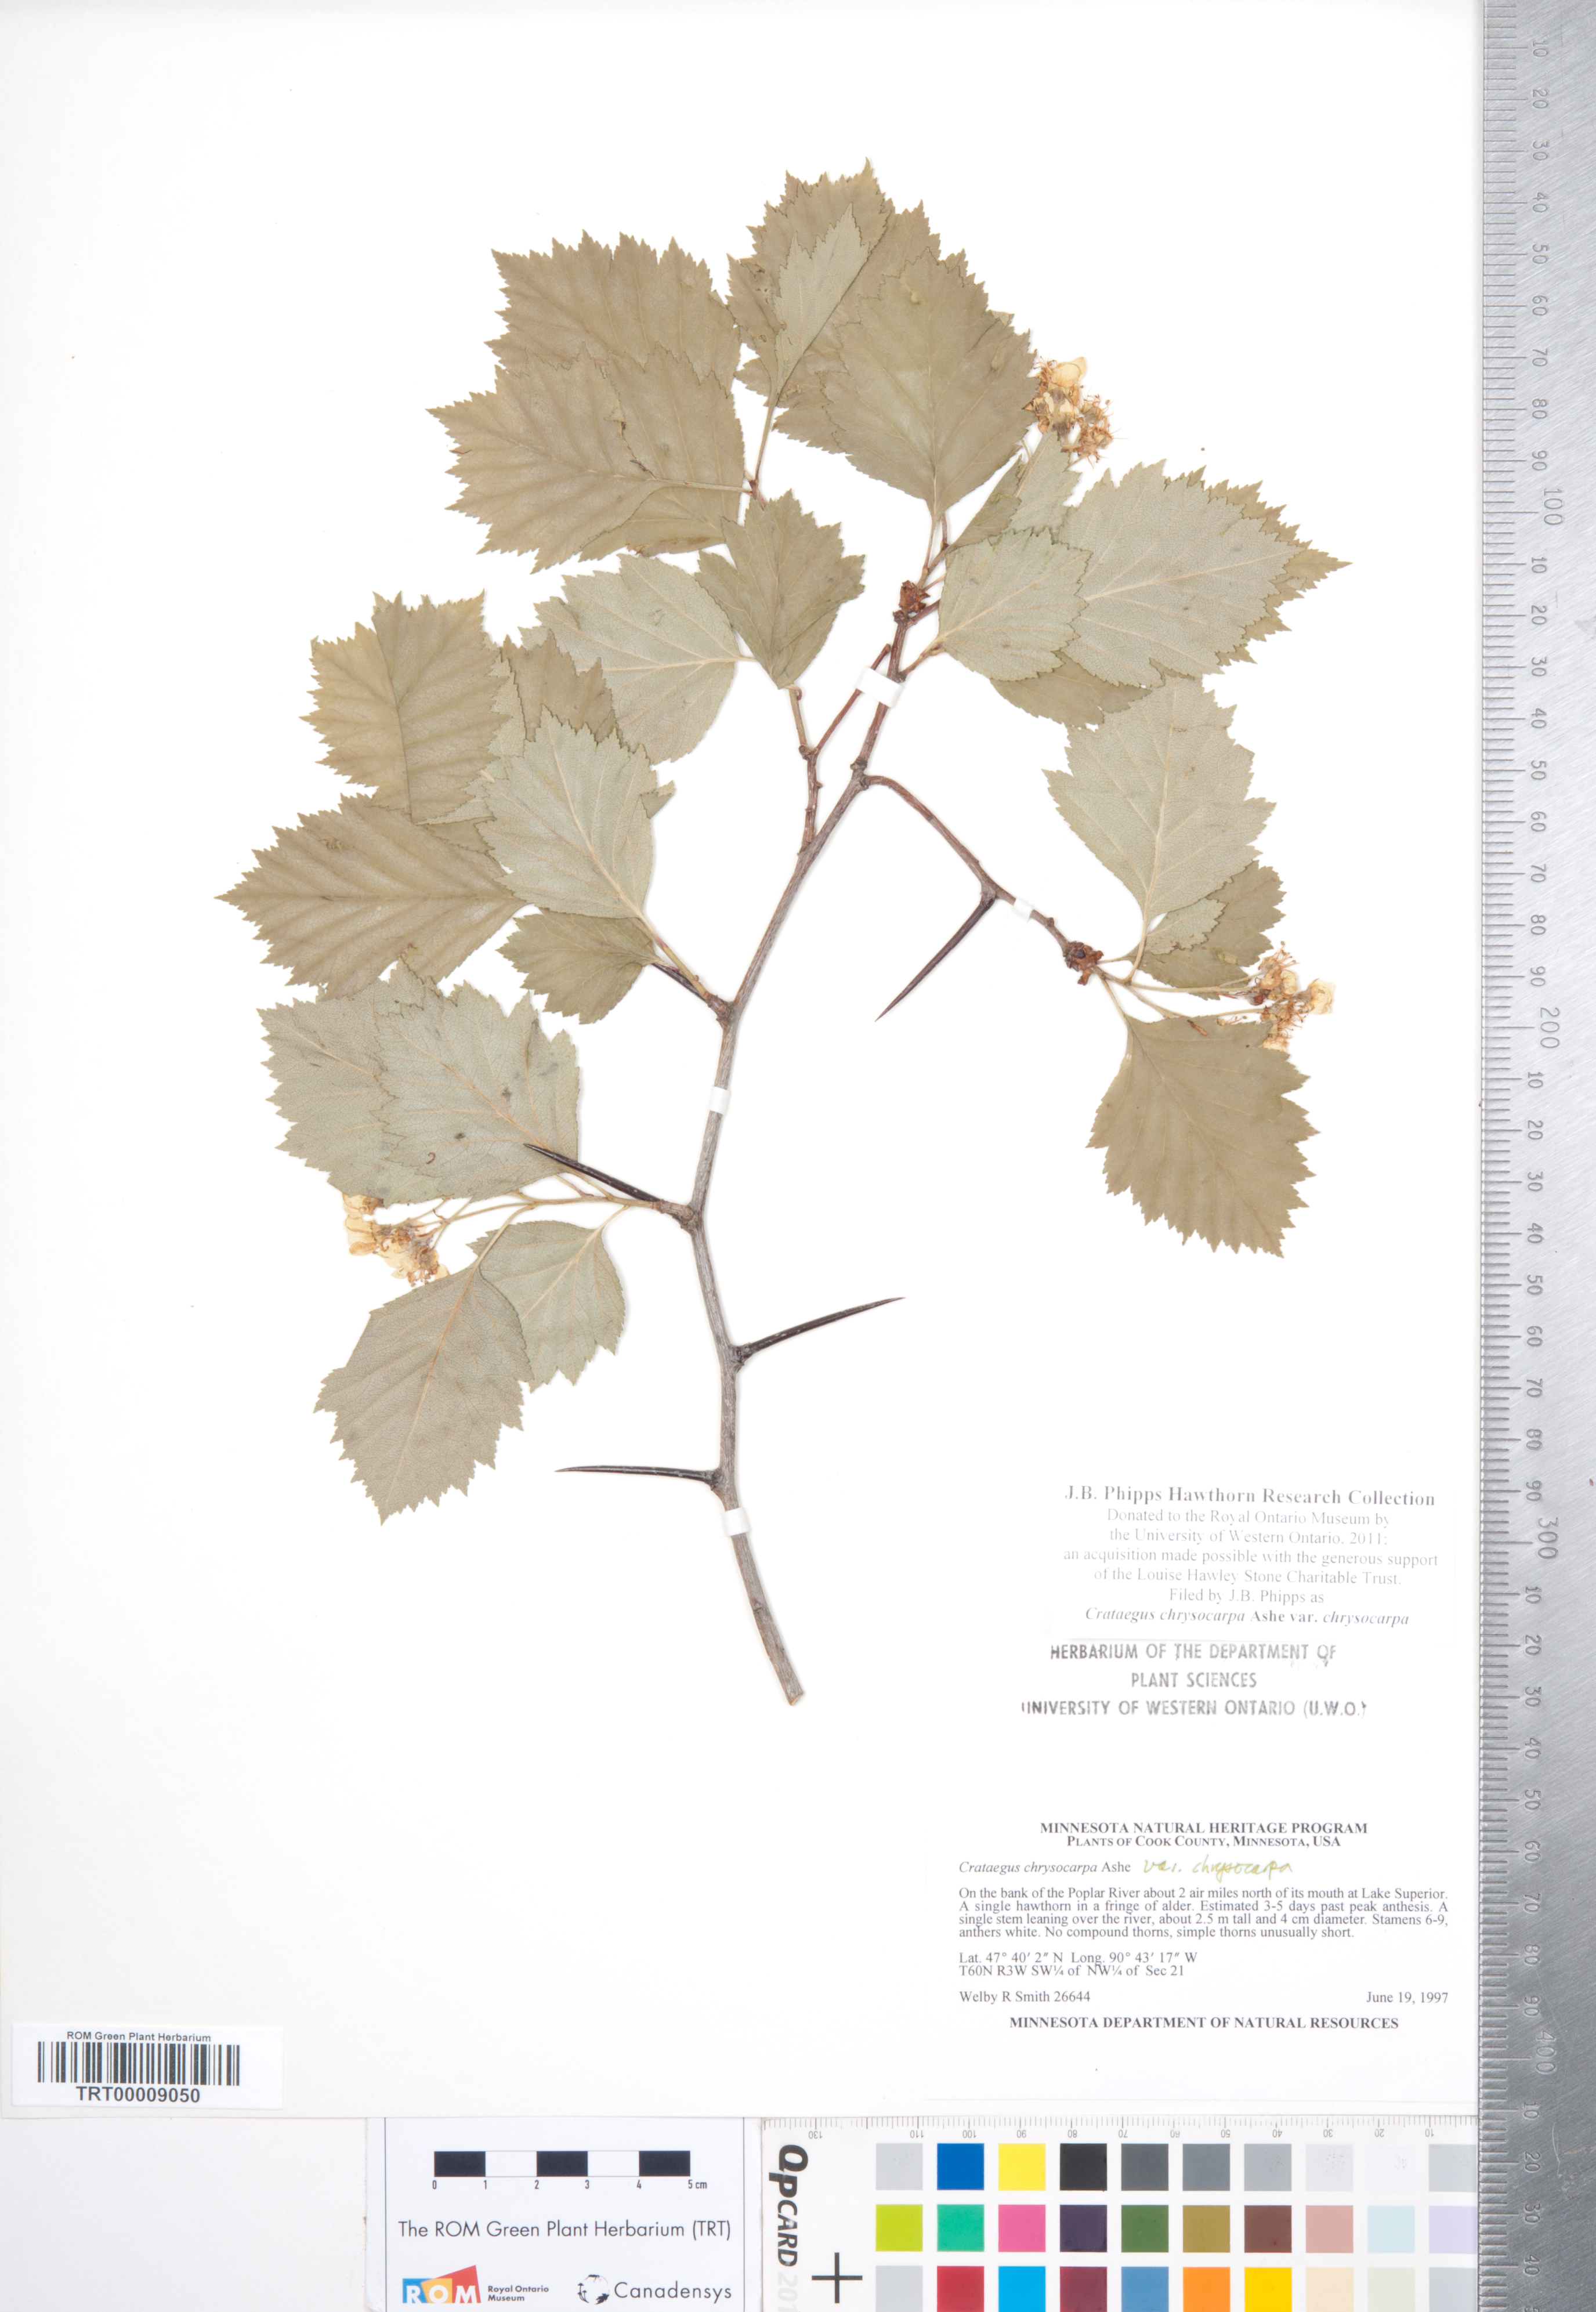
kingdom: Plantae
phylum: Tracheophyta
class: Magnoliopsida
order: Rosales
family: Rosaceae
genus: Crataegus
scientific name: Crataegus chrysocarpa
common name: Fire-berry hawthorn
